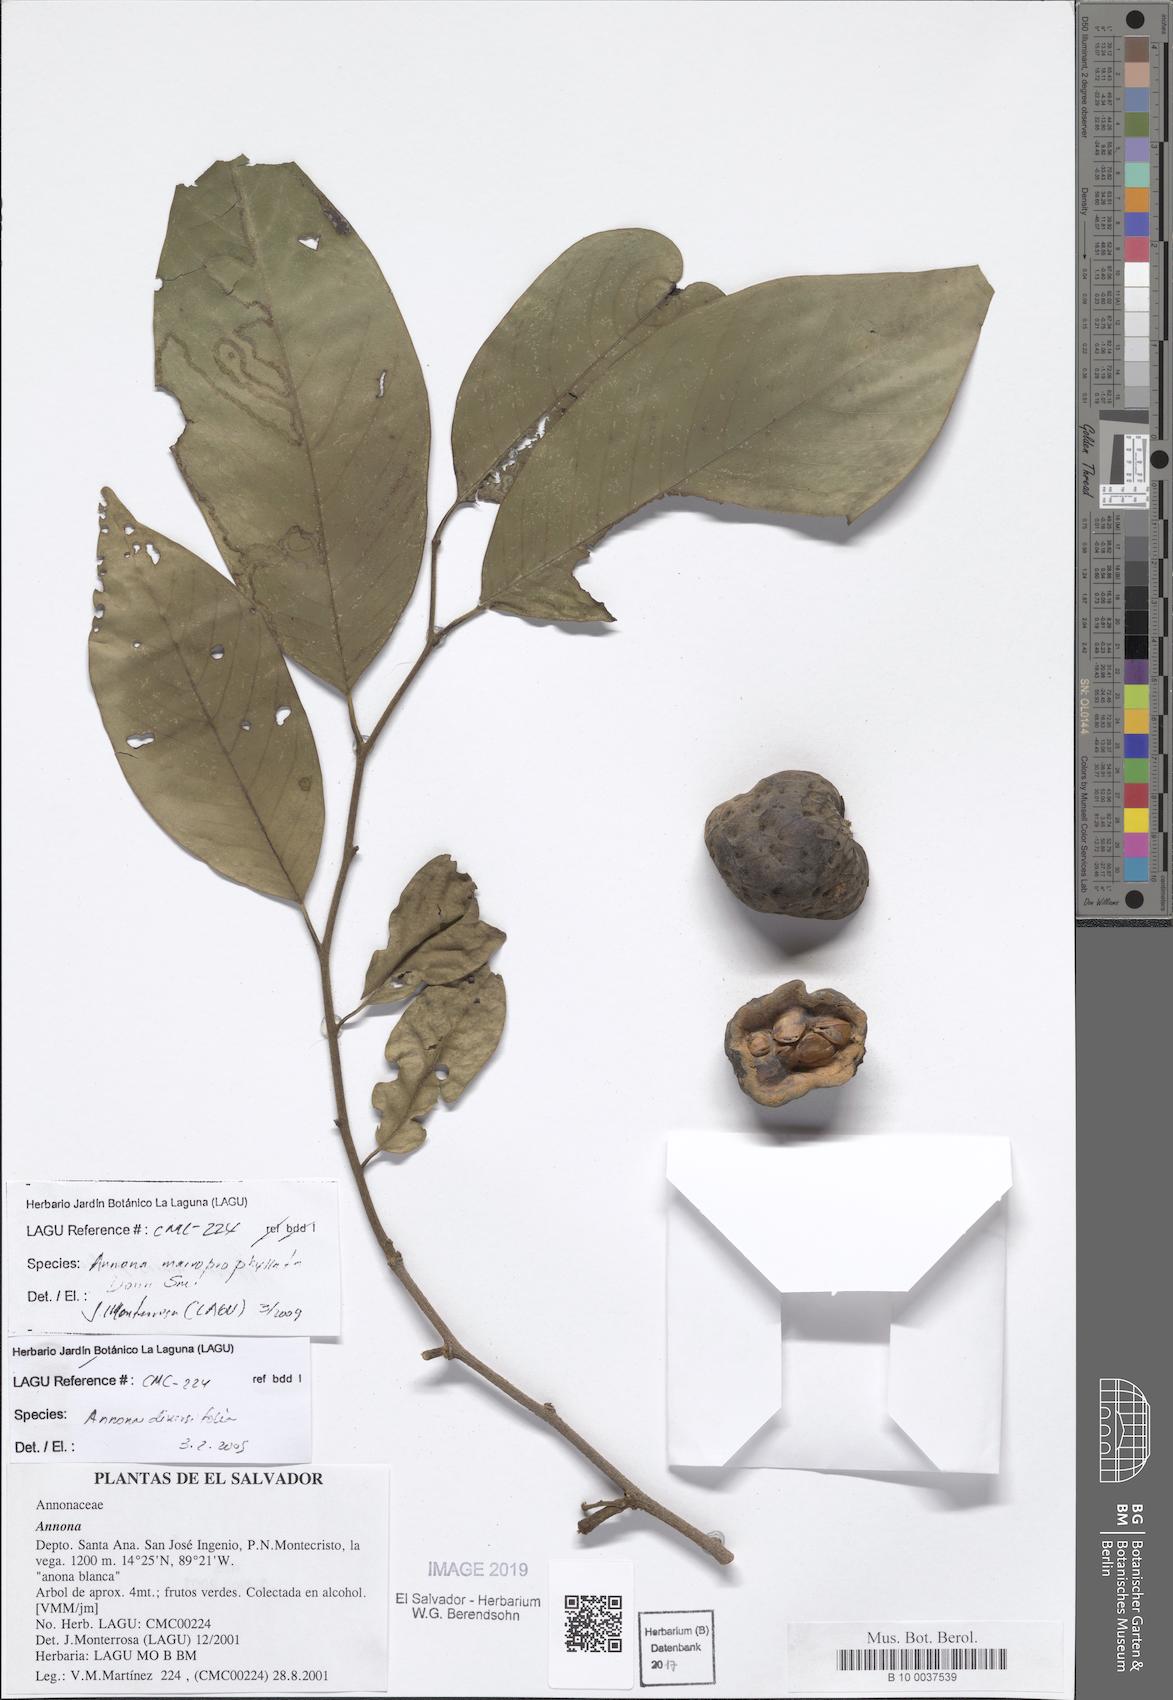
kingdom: Plantae
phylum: Tracheophyta
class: Magnoliopsida
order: Magnoliales
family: Annonaceae
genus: Annona
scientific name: Annona macroprophyllata
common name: Ilama
